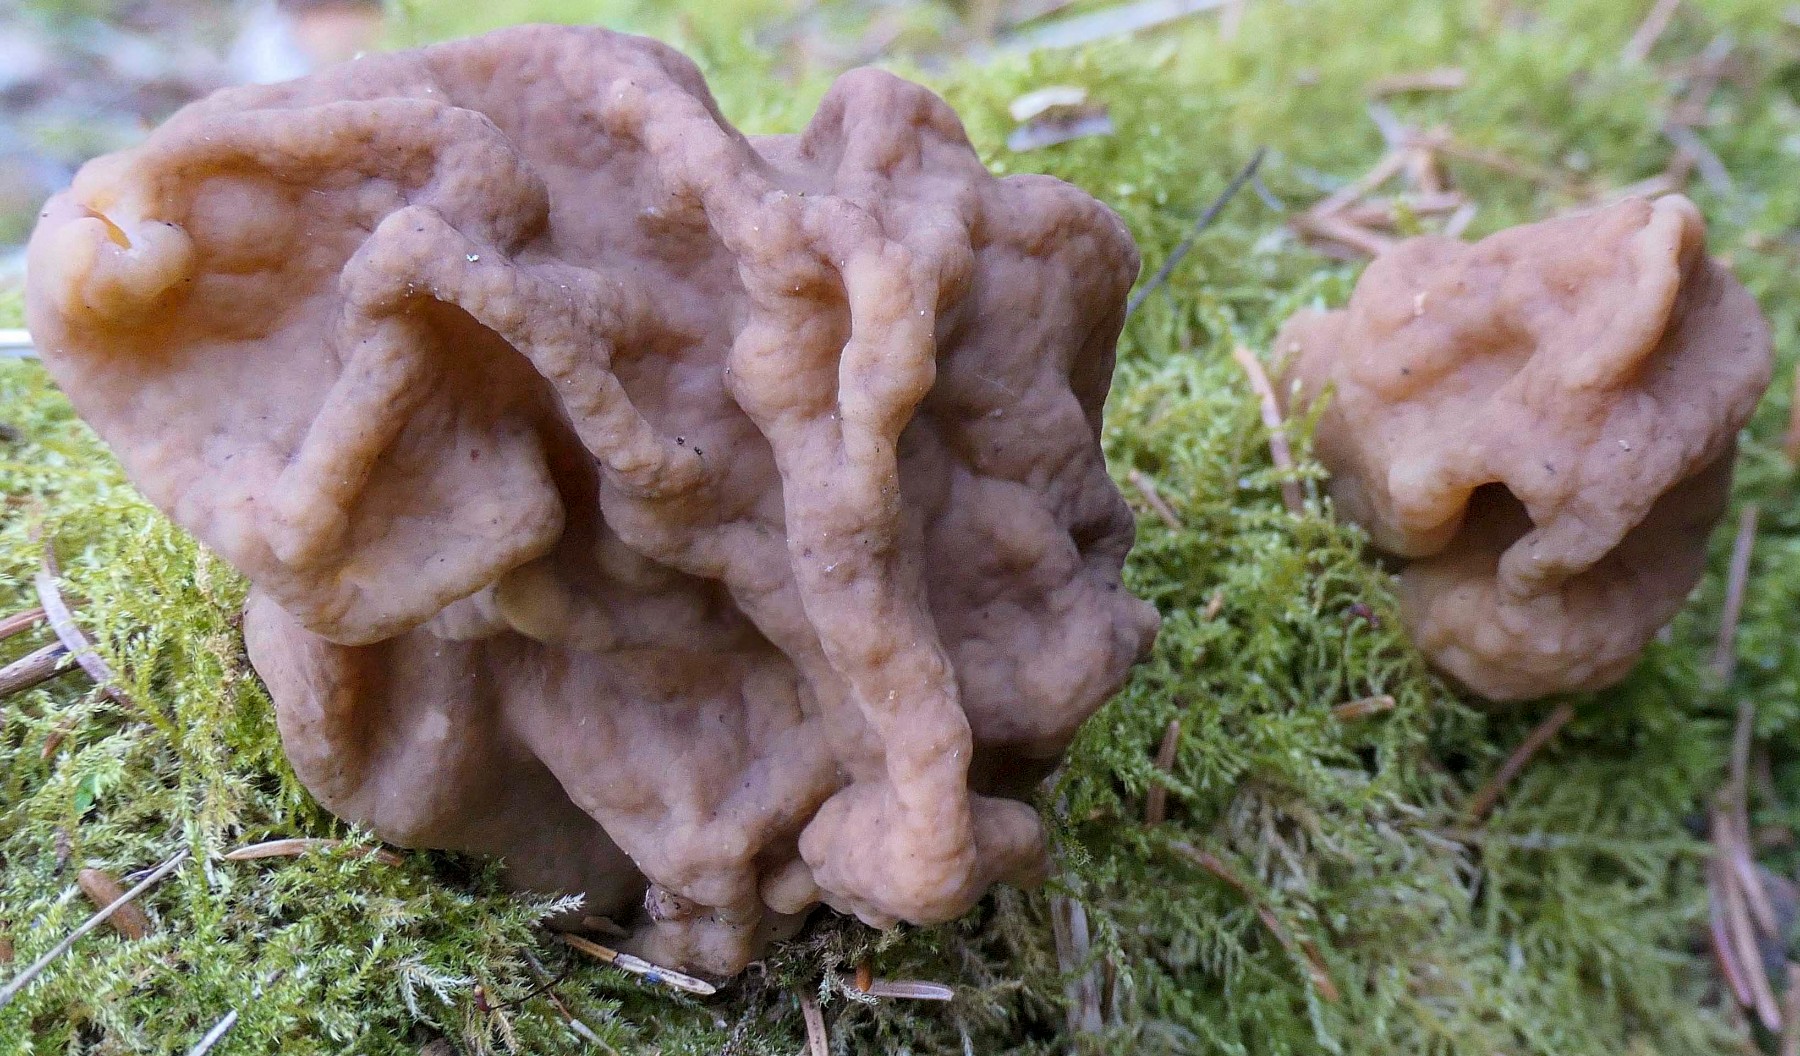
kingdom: Fungi
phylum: Ascomycota
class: Pezizomycetes
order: Pezizales
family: Discinaceae
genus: Gyromitra
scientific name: Gyromitra gigas
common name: kæmpe-stenmorkel
